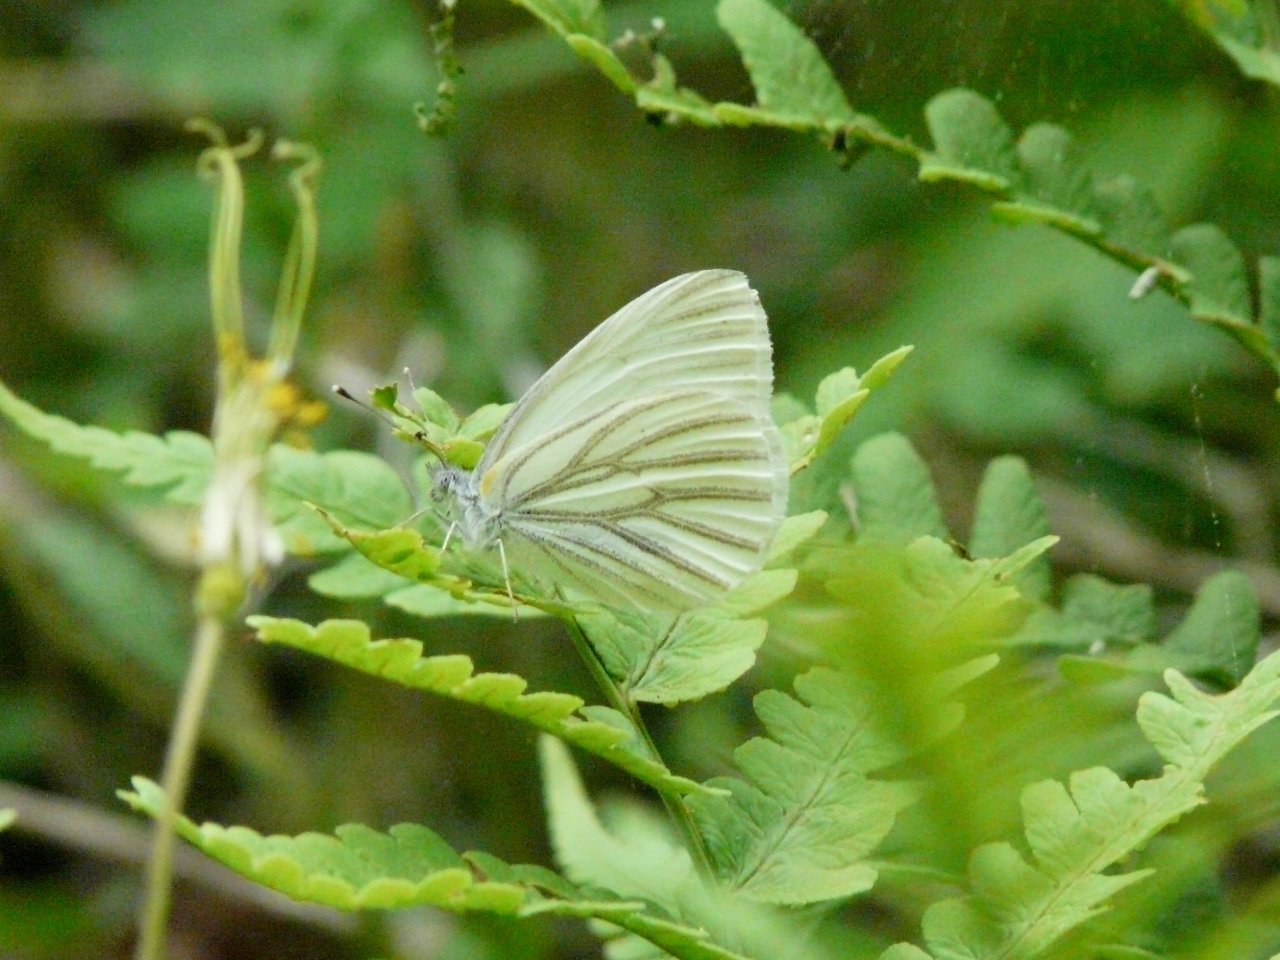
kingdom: Animalia
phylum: Arthropoda
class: Insecta
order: Lepidoptera
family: Pieridae
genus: Pieris
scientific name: Pieris oleracea
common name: Mustard White
